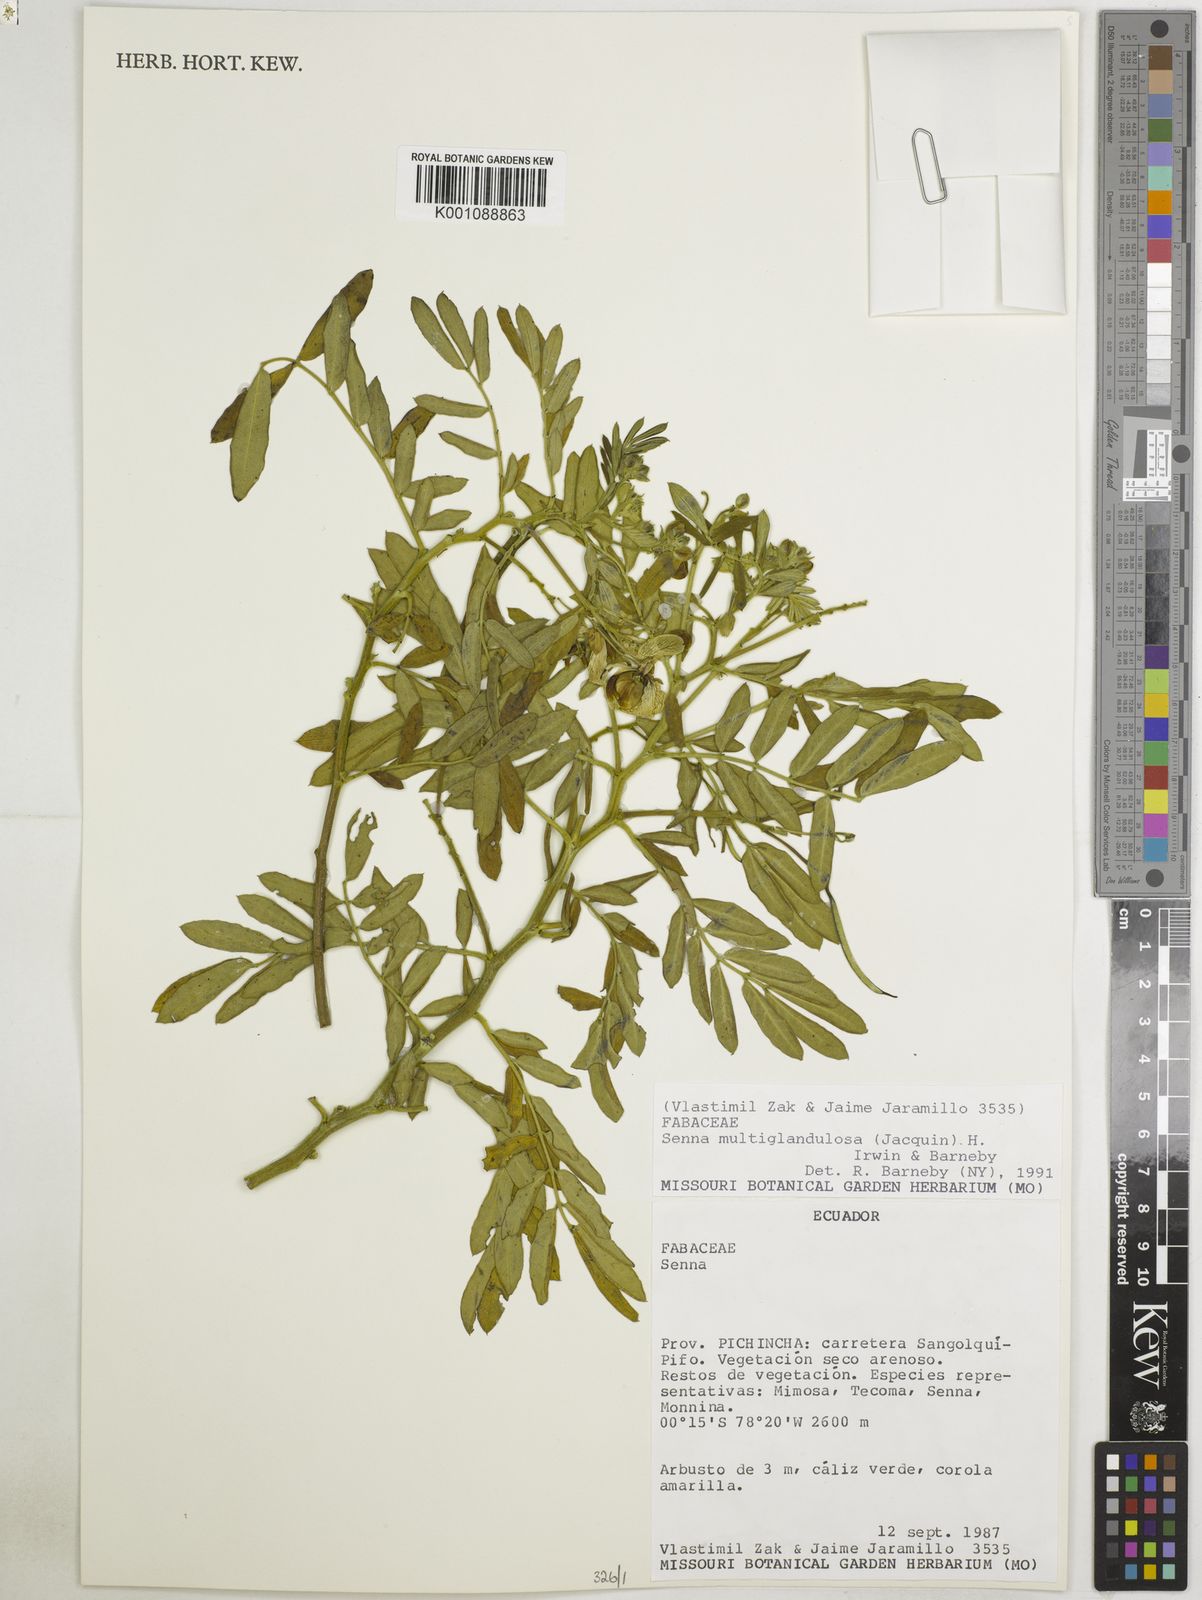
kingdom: Plantae
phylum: Tracheophyta
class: Magnoliopsida
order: Fabales
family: Fabaceae
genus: Senna
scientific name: Senna multiglandulosa
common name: Glandular senna
